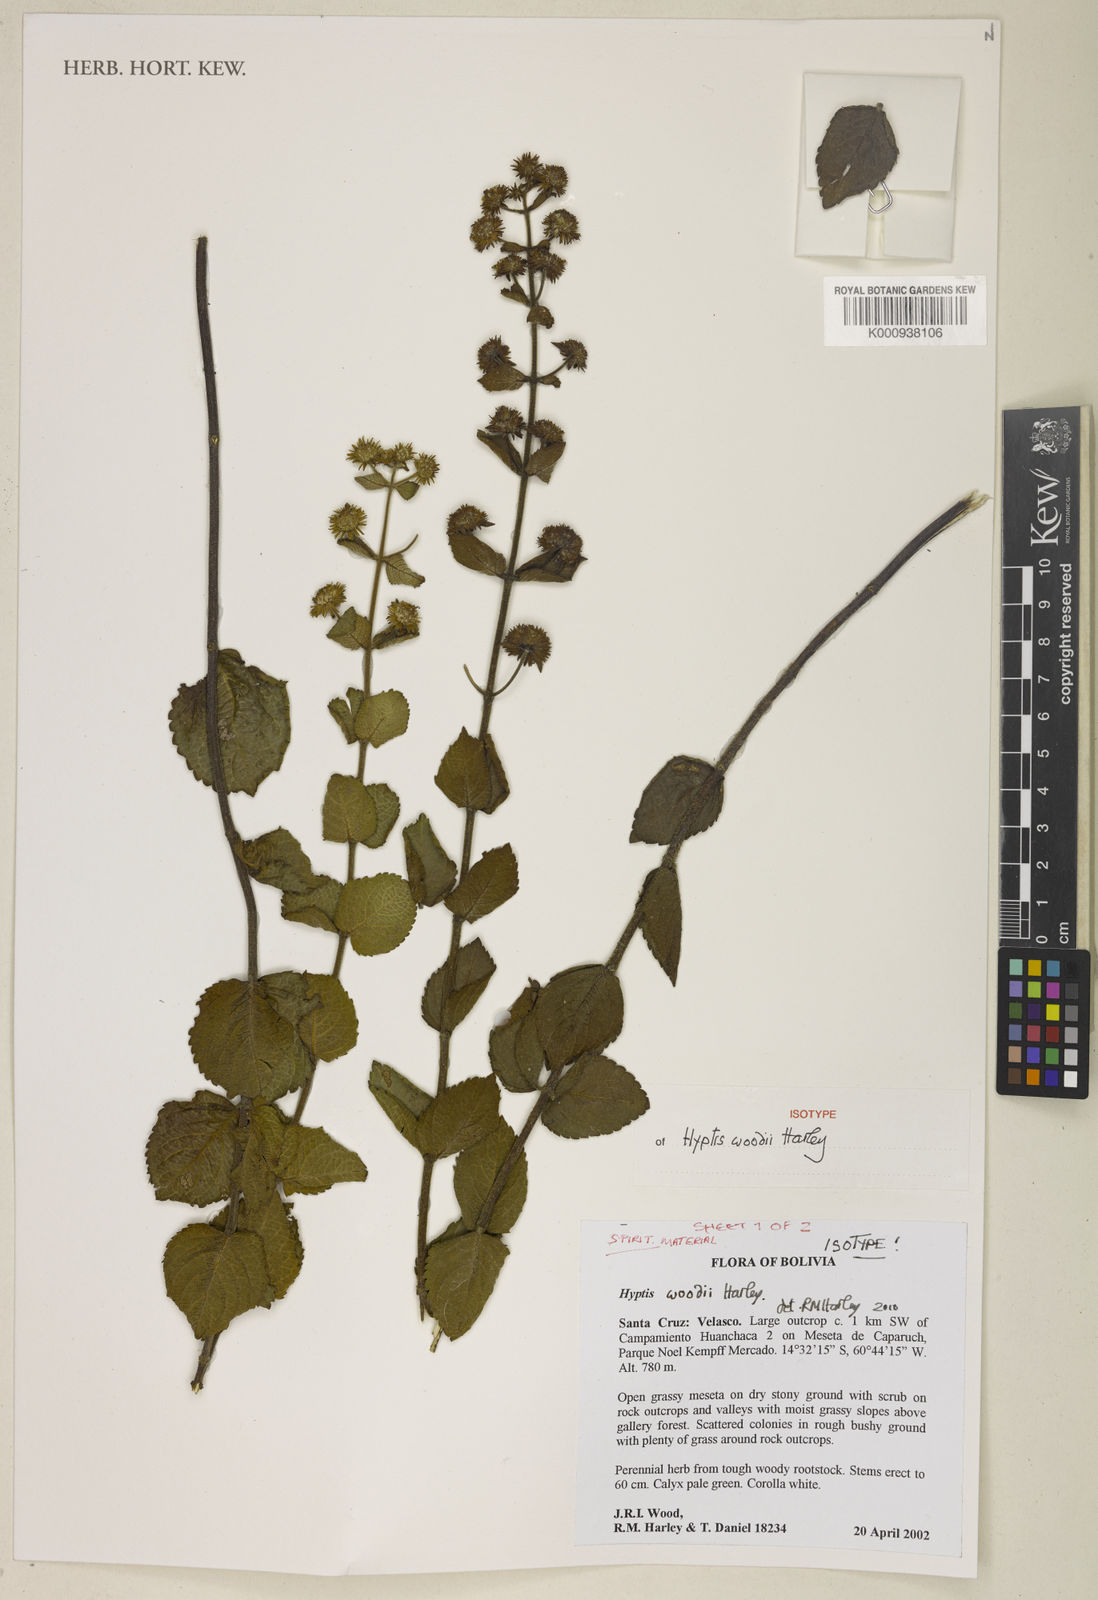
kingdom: Plantae
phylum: Tracheophyta
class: Magnoliopsida
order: Lamiales
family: Lamiaceae
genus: Hyptis
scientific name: Hyptis woodii
